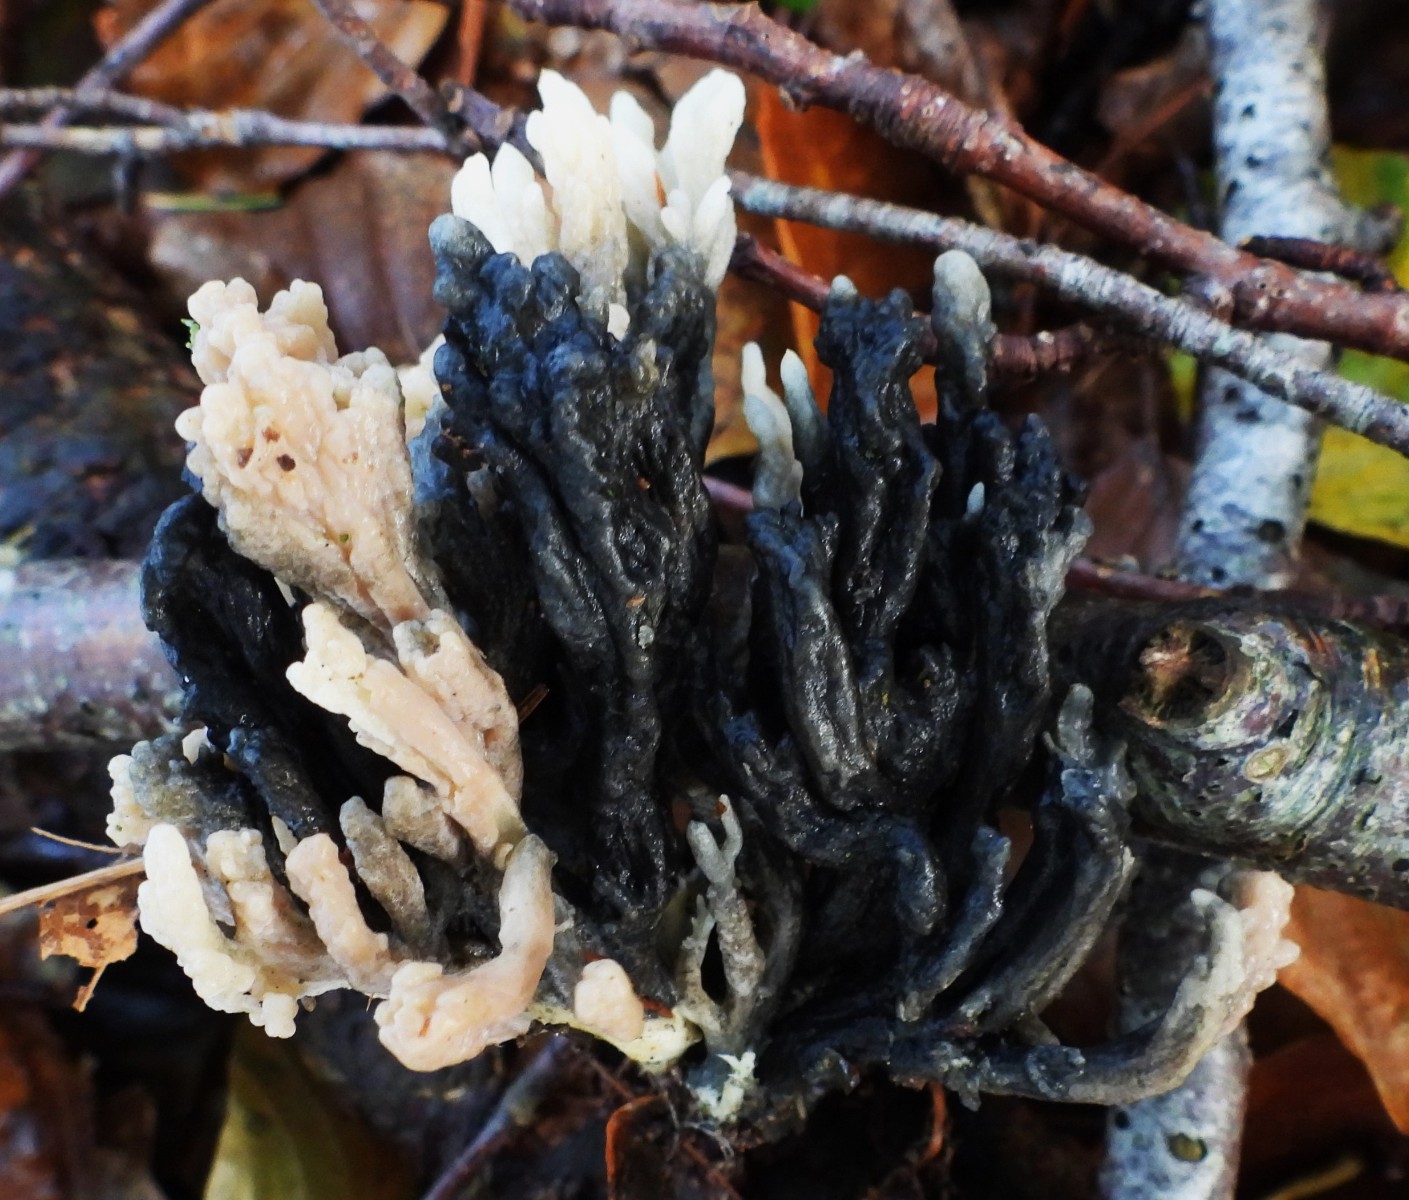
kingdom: Fungi
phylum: Ascomycota
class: Sordariomycetes
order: Sordariales
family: Helminthosphaeriaceae
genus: Helminthosphaeria
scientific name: Helminthosphaeria clavariarum
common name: trold-svampesnyltekerne
